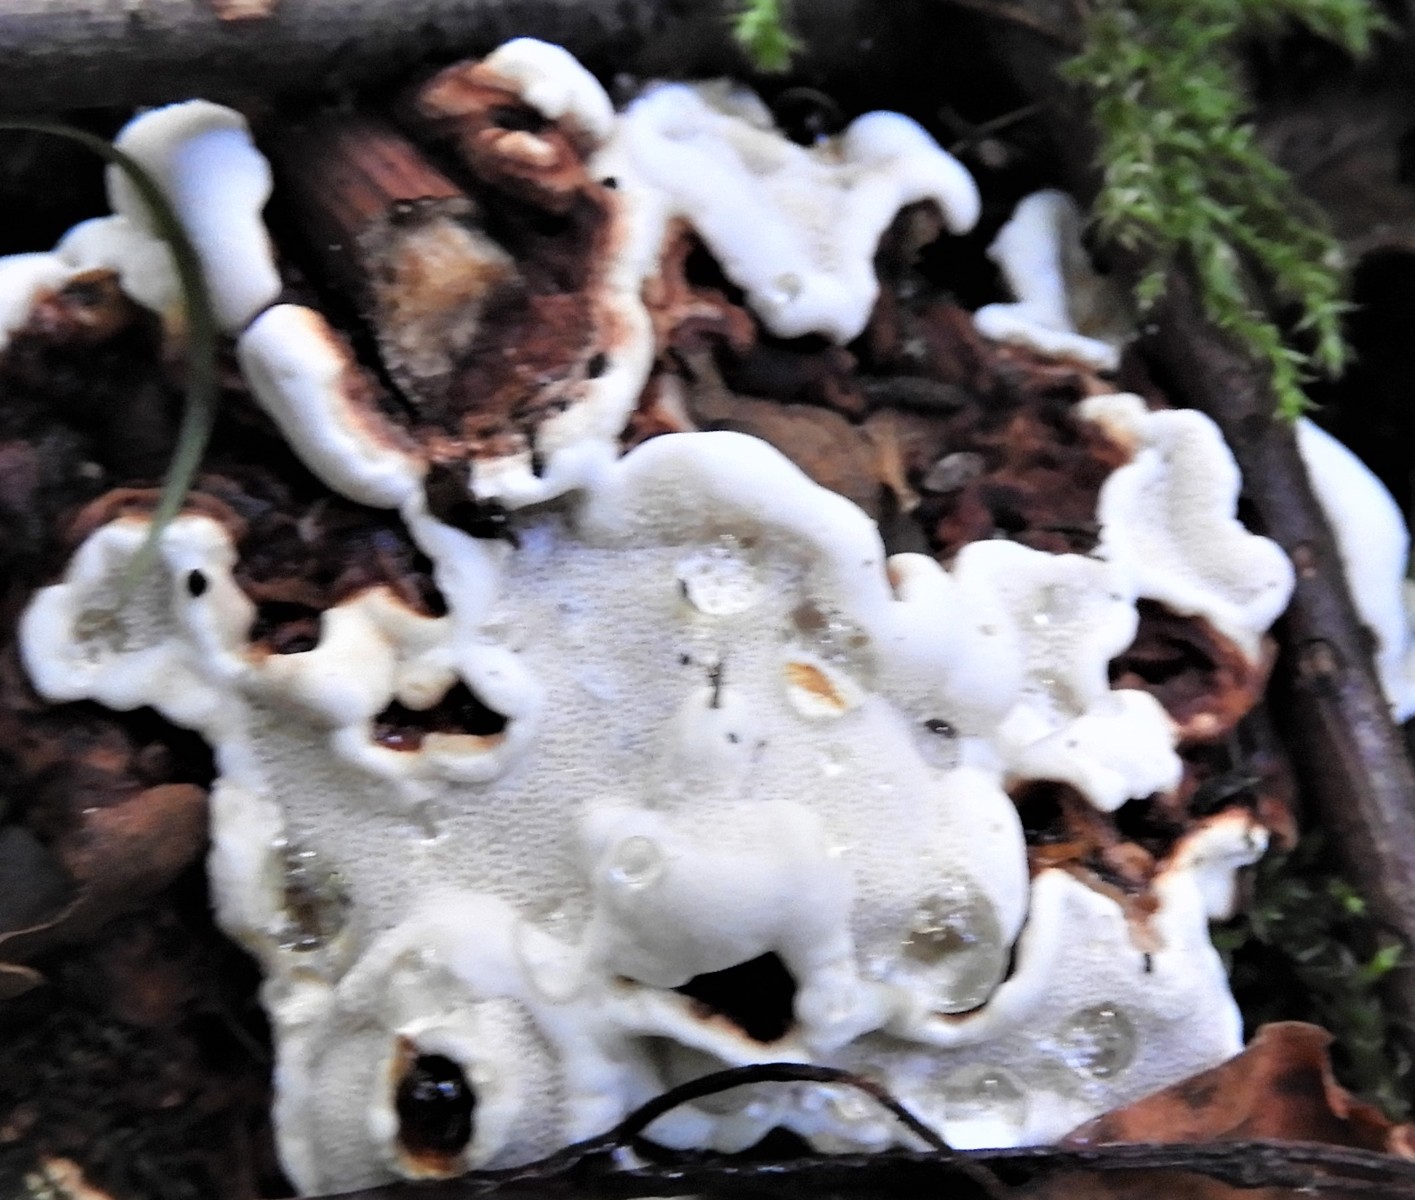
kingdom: Fungi
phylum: Basidiomycota
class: Agaricomycetes
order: Russulales
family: Bondarzewiaceae
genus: Heterobasidion
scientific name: Heterobasidion annosum
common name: almindelig rodfordærver
